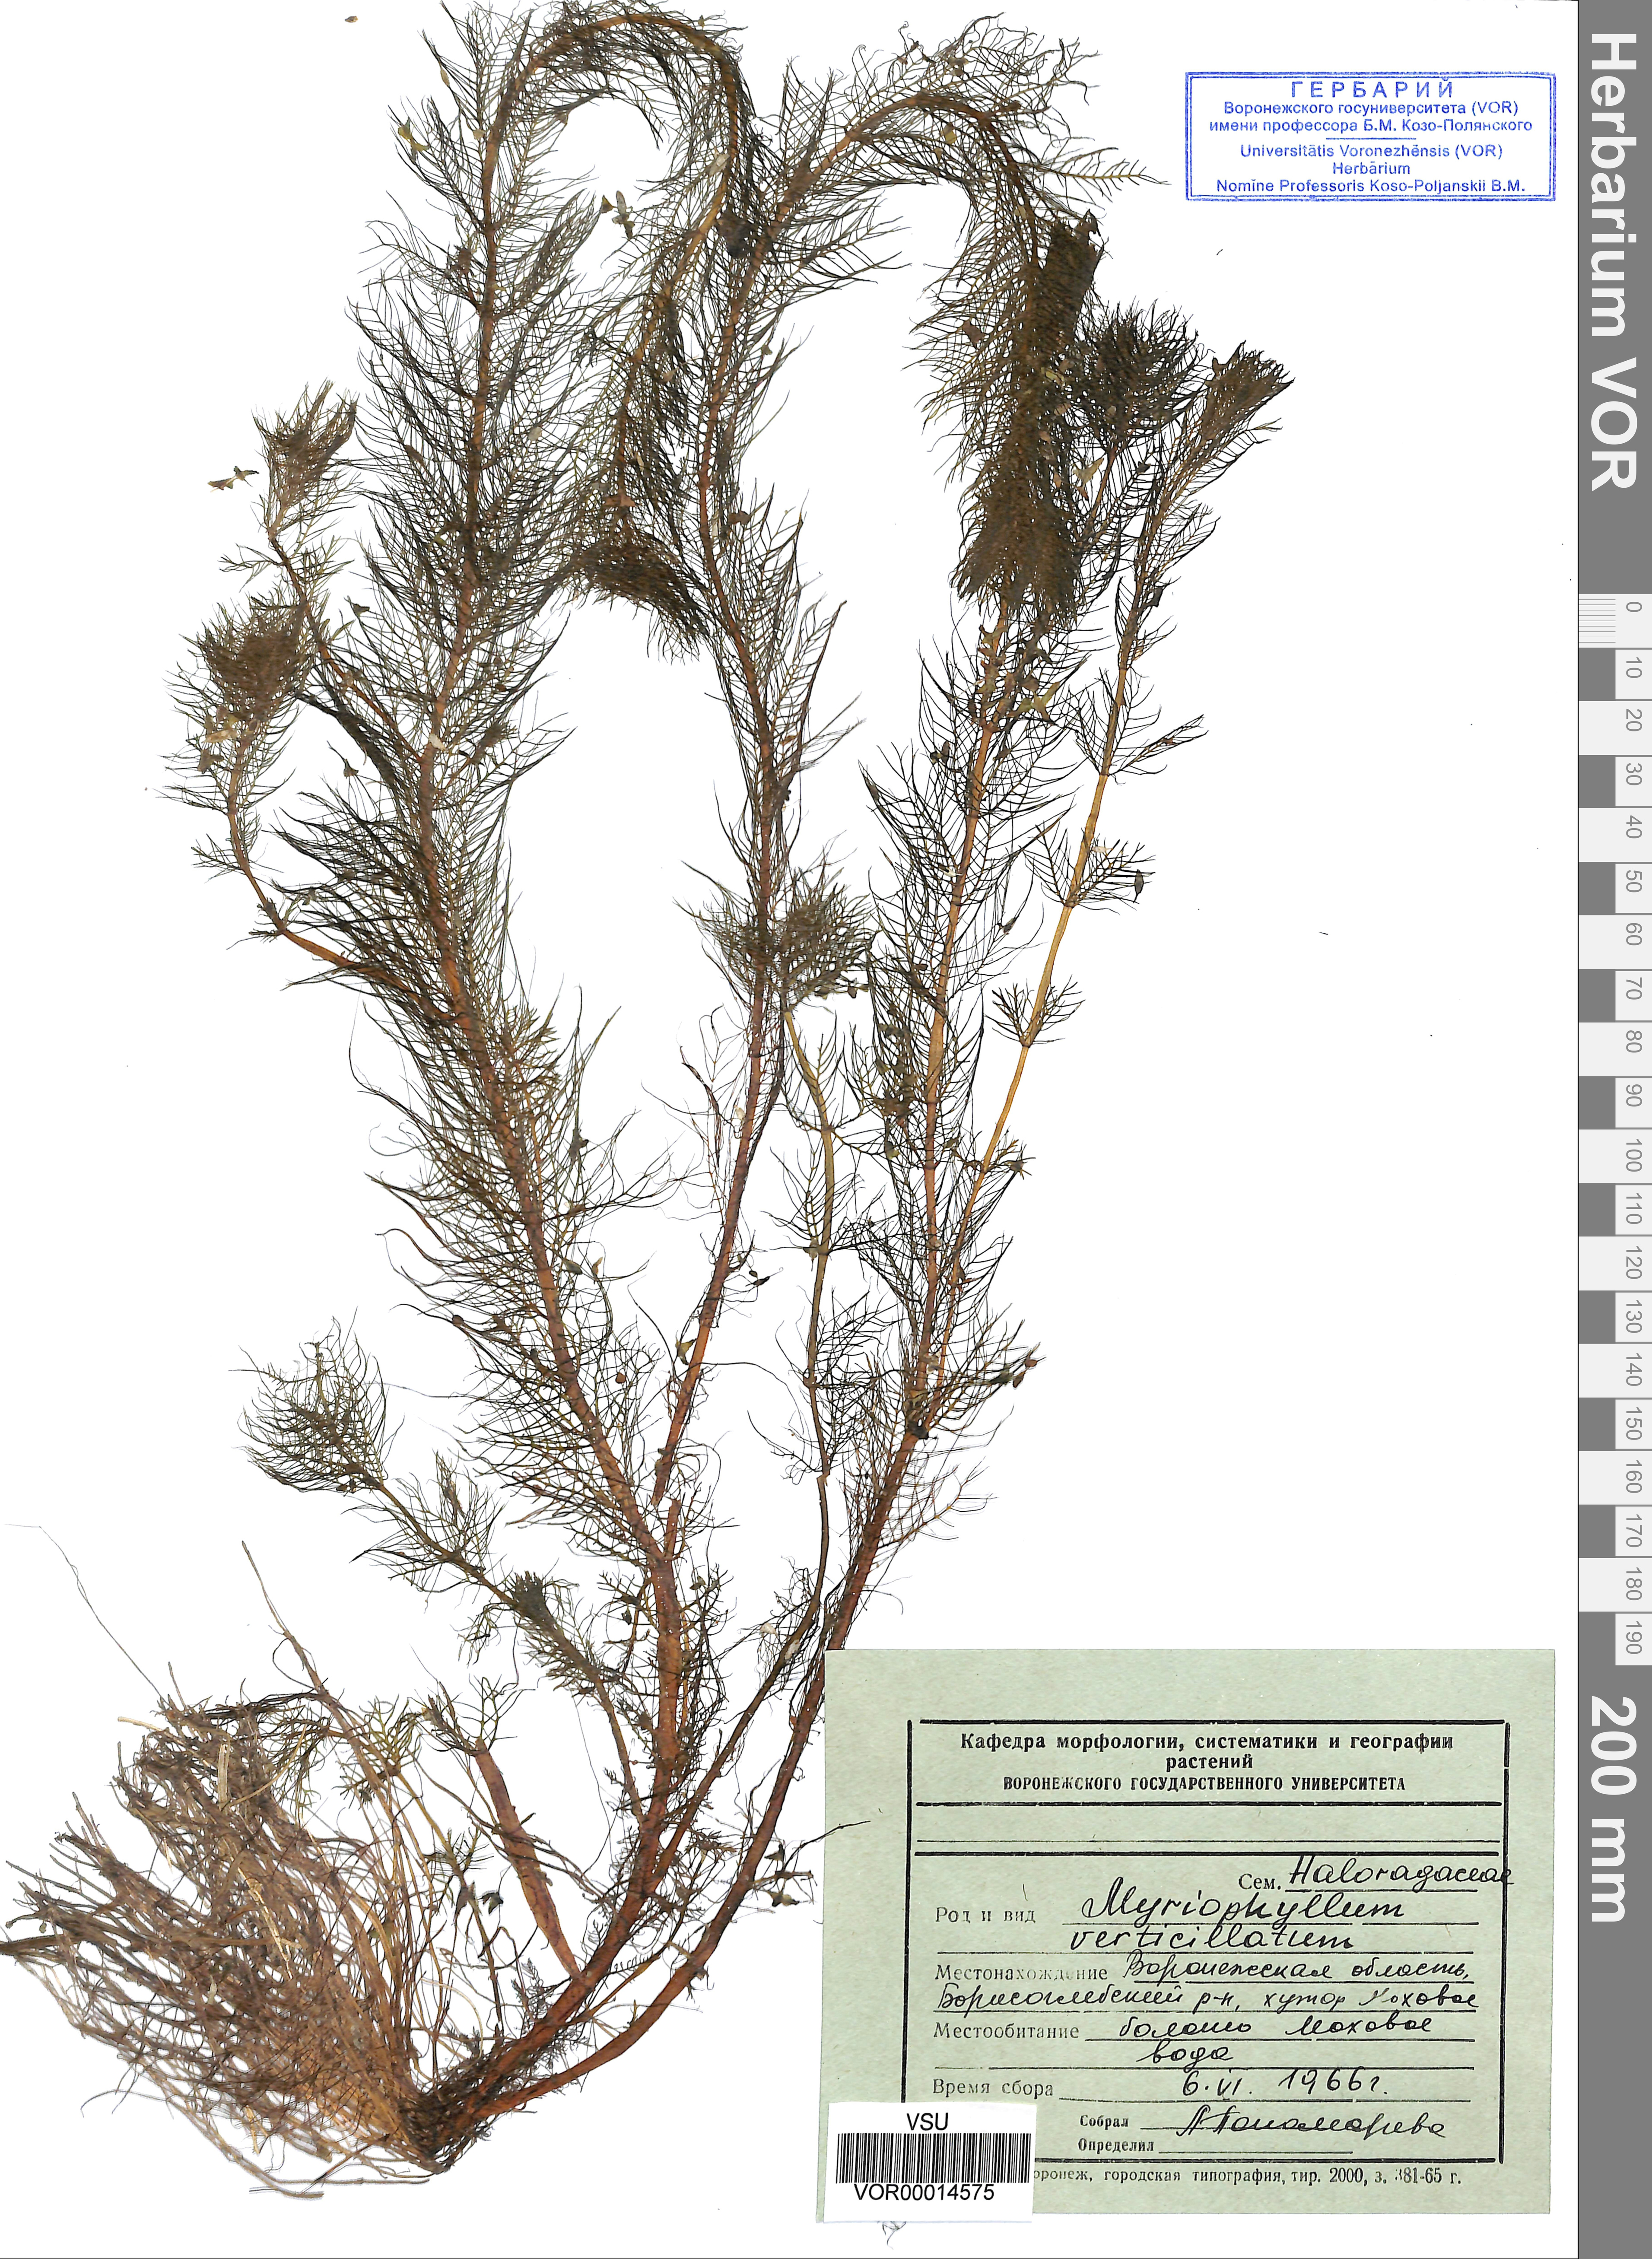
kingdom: Plantae
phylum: Tracheophyta
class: Magnoliopsida
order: Saxifragales
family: Haloragaceae
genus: Myriophyllum
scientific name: Myriophyllum verticillatum
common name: Whorled water-milfoil
